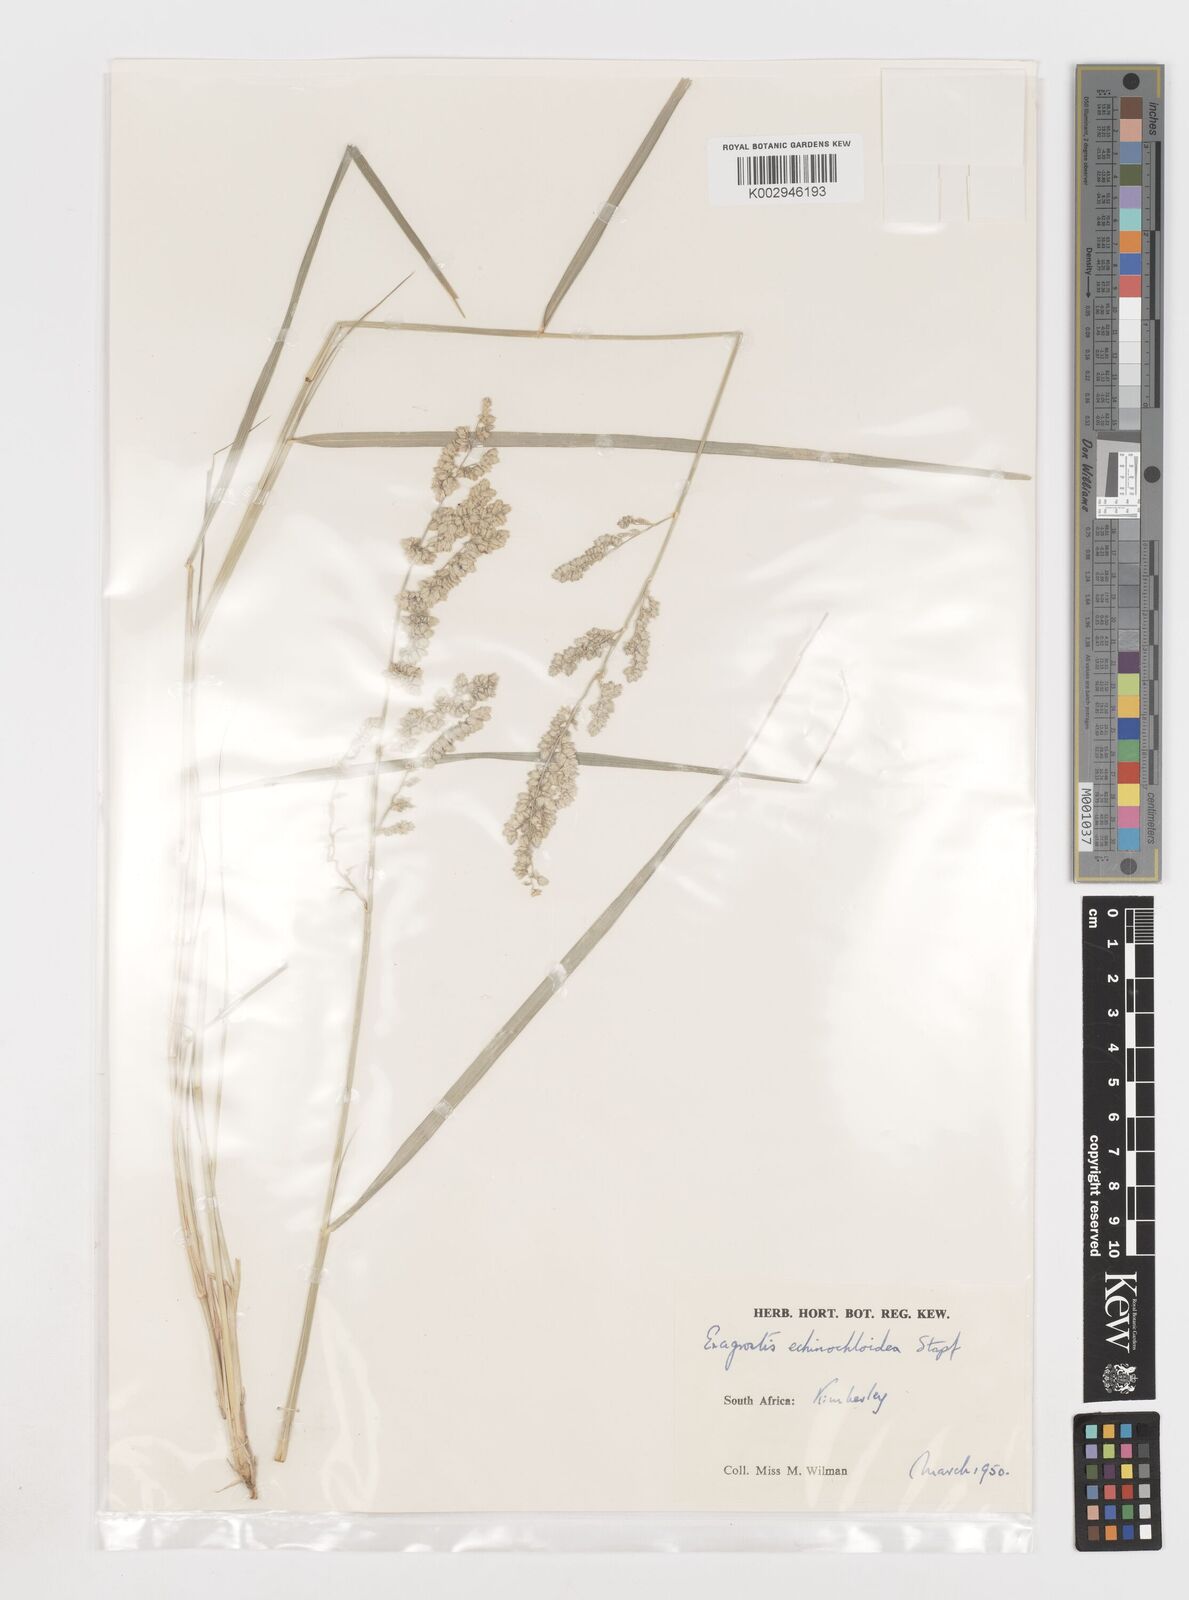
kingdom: Plantae
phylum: Tracheophyta
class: Liliopsida
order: Poales
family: Poaceae
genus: Eragrostis
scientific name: Eragrostis echinochloidea
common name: African lovegrass
